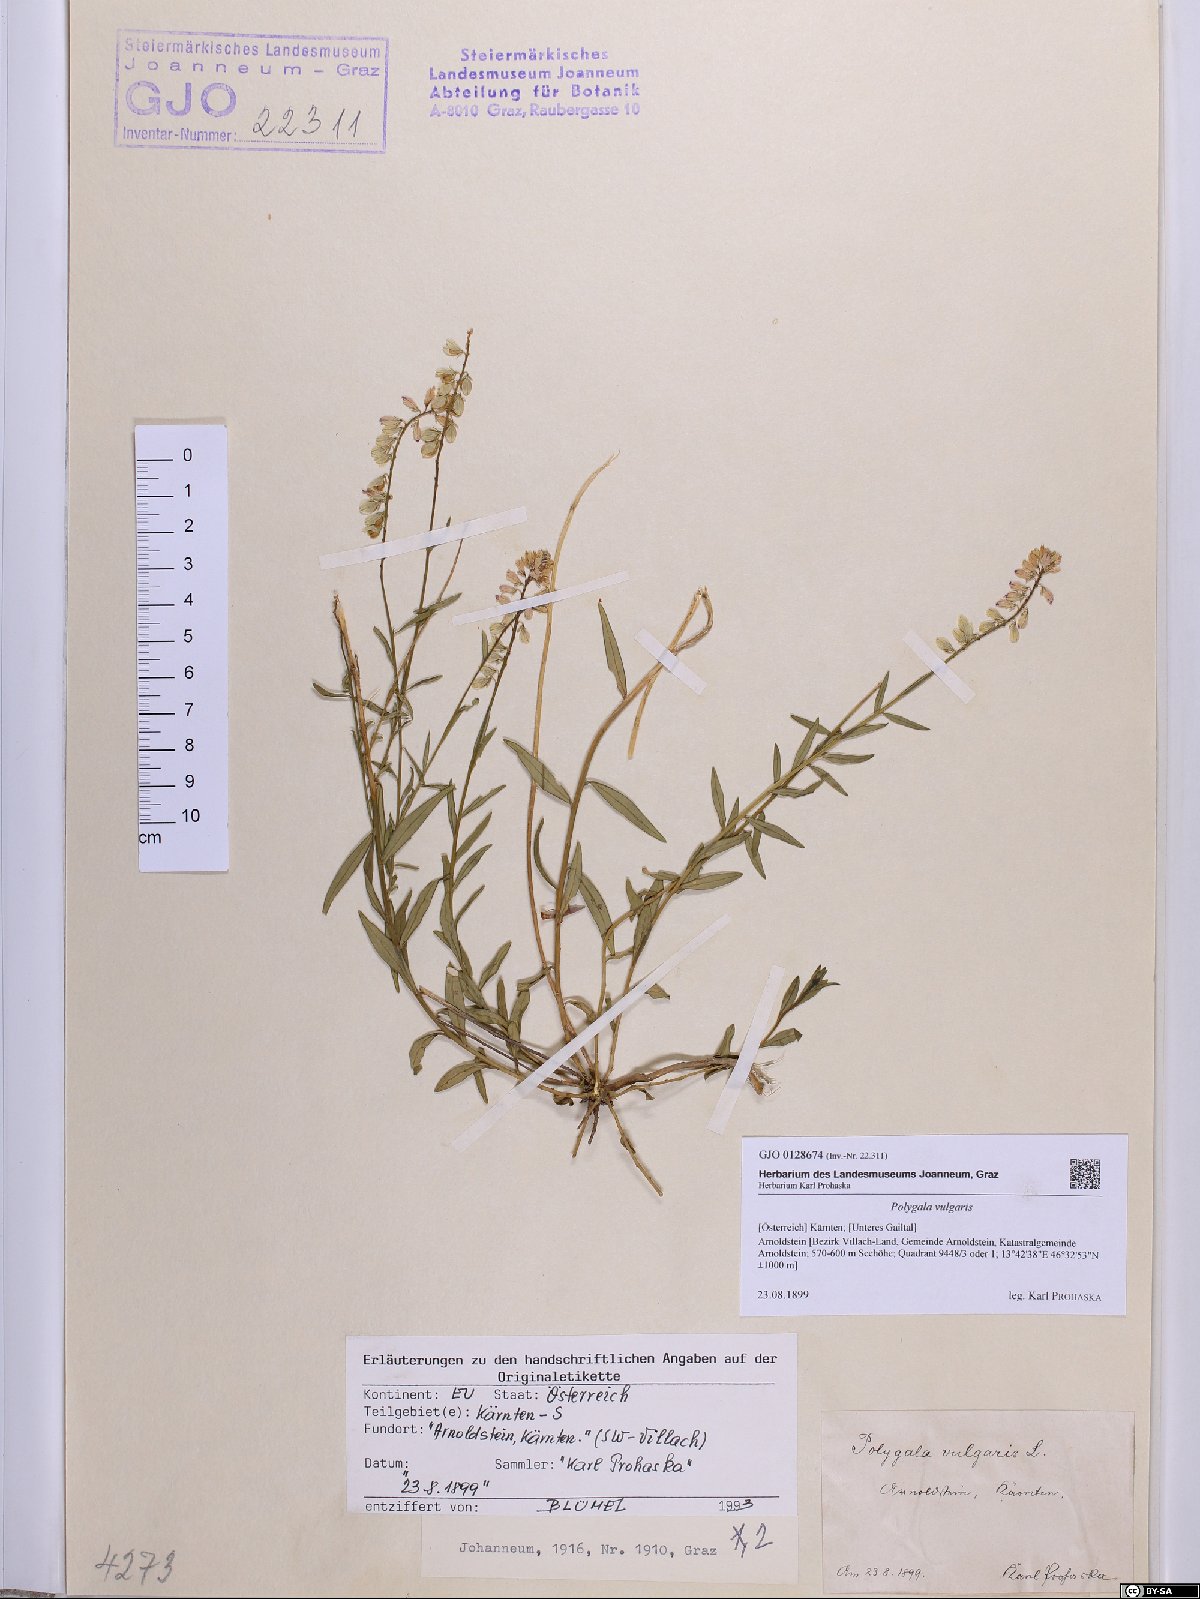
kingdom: Plantae
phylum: Tracheophyta
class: Magnoliopsida
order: Fabales
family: Polygalaceae
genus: Polygala
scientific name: Polygala vulgaris
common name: Common milkwort
